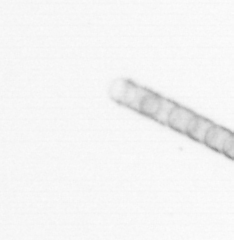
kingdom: Chromista
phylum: Ochrophyta
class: Bacillariophyceae
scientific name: Bacillariophyceae
